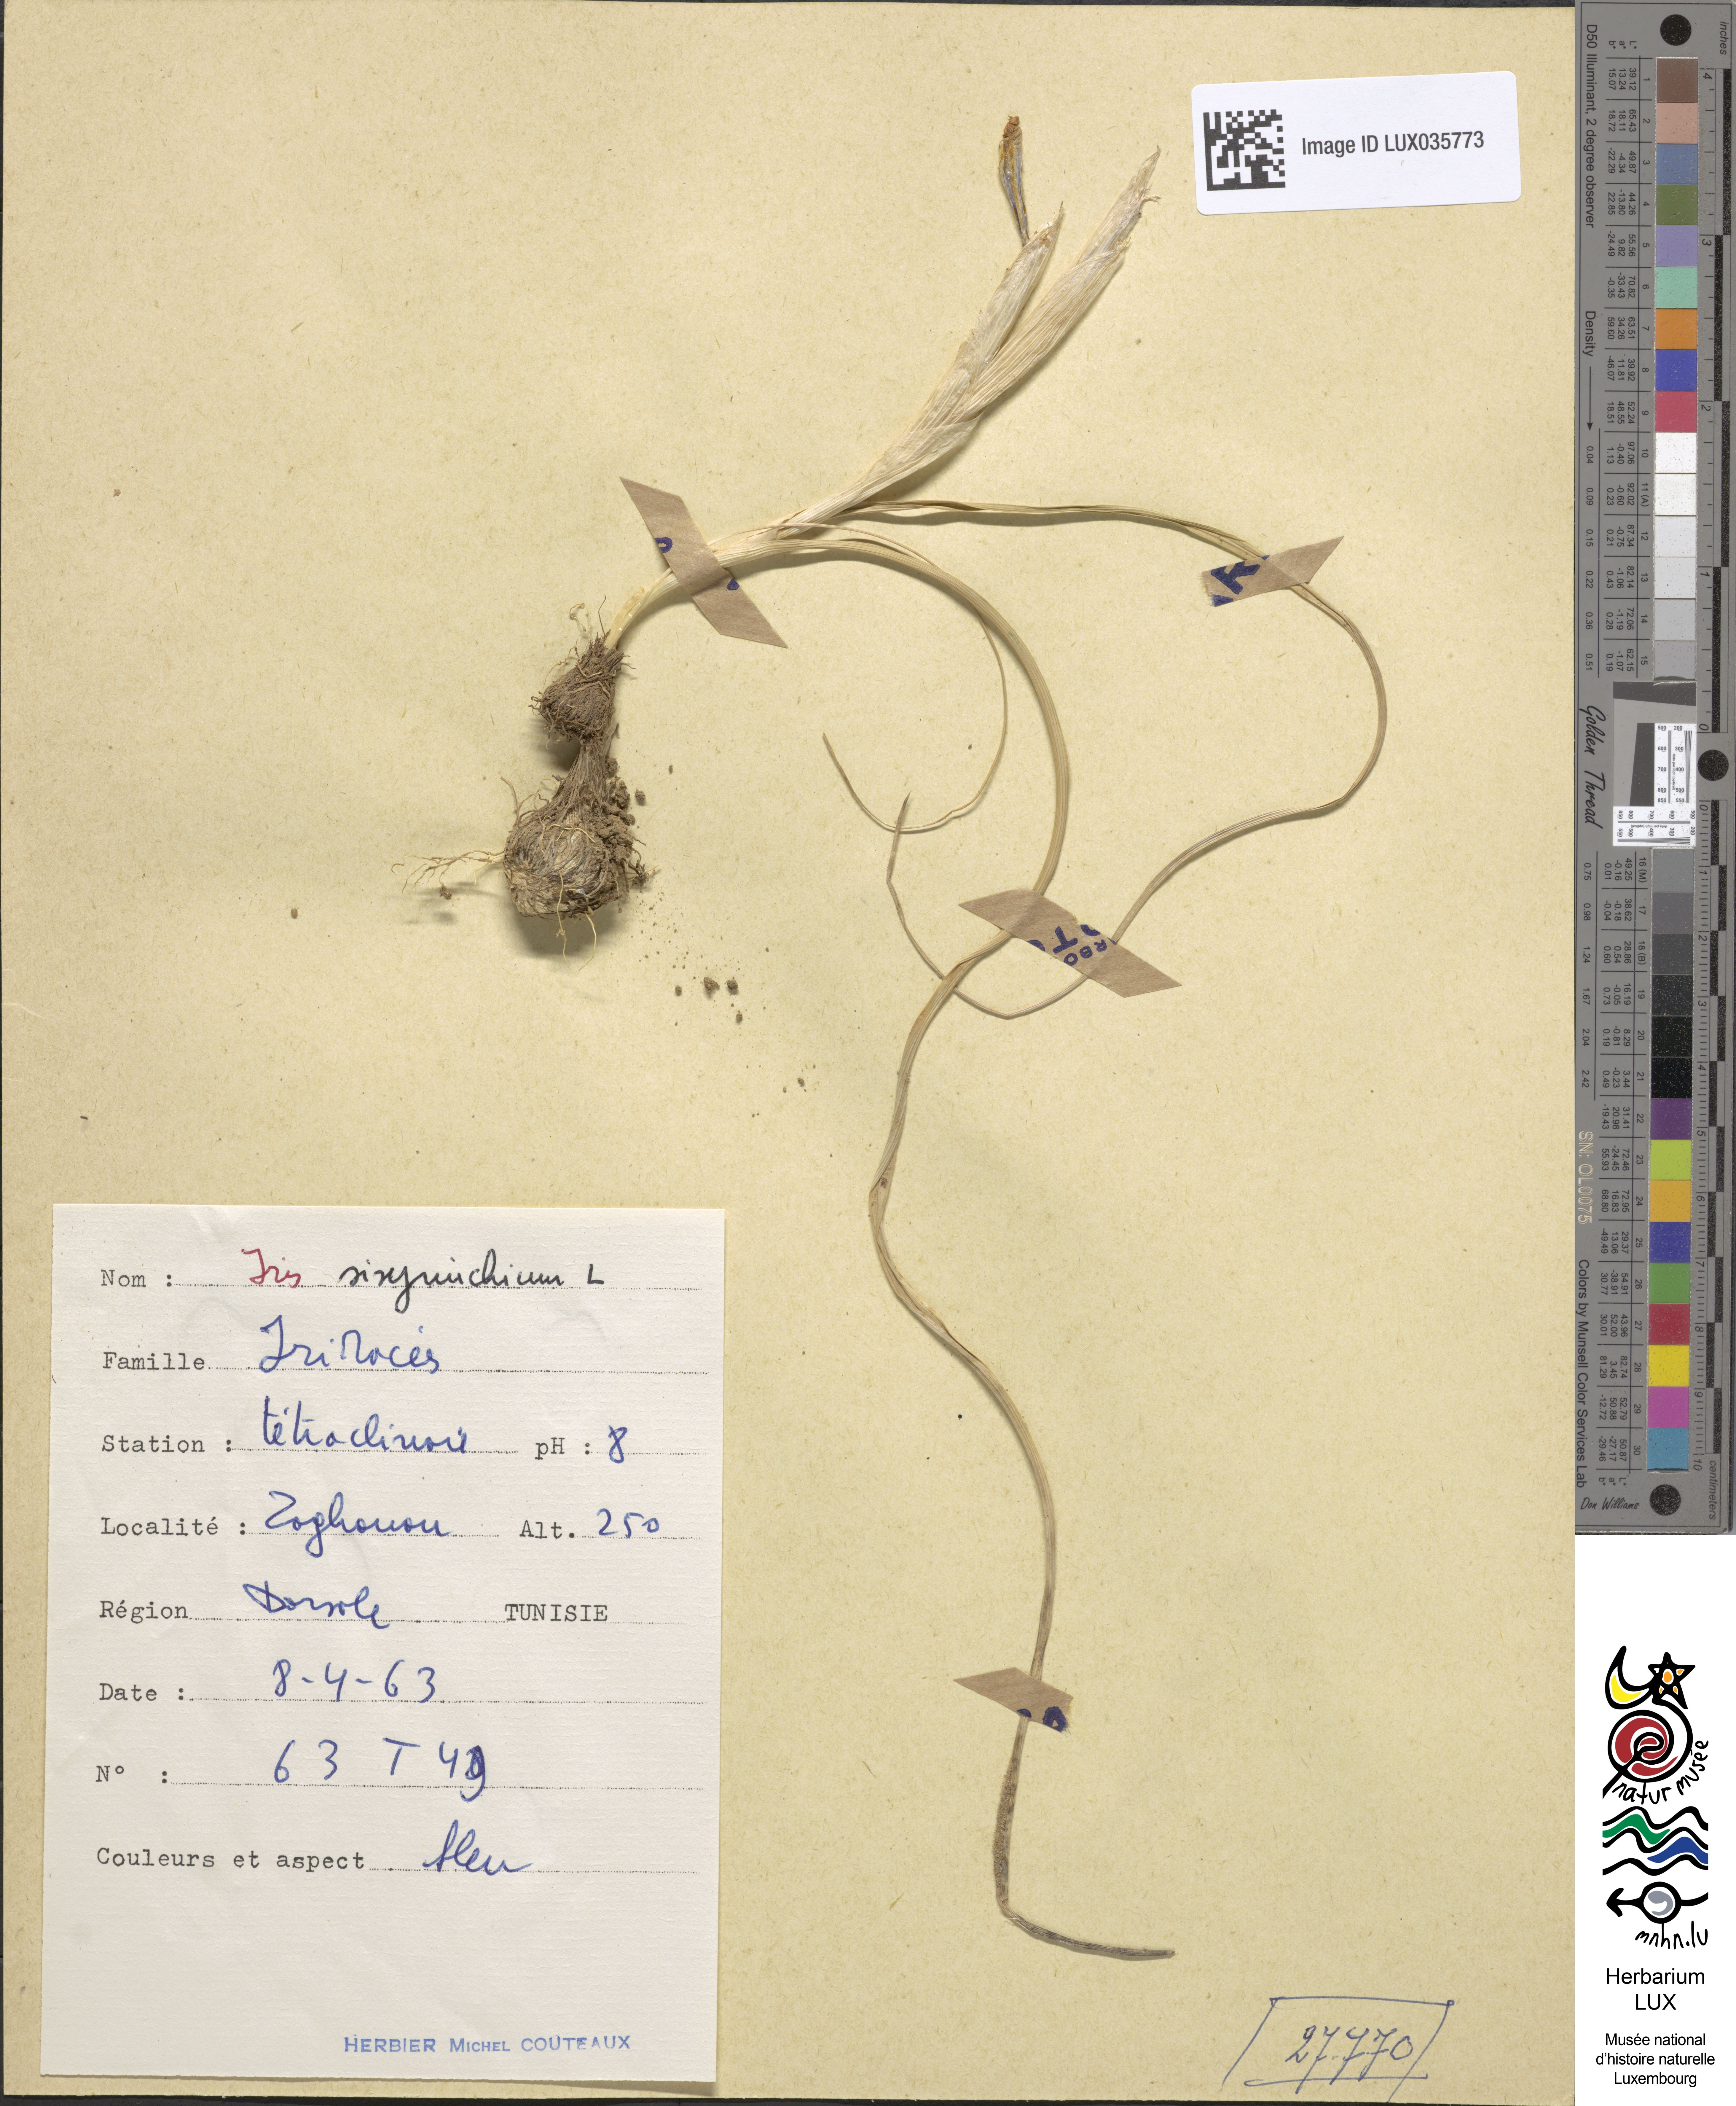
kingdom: Plantae
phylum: Tracheophyta
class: Liliopsida
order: Asparagales
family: Iridaceae
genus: Moraea
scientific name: Moraea sisyrinchium
